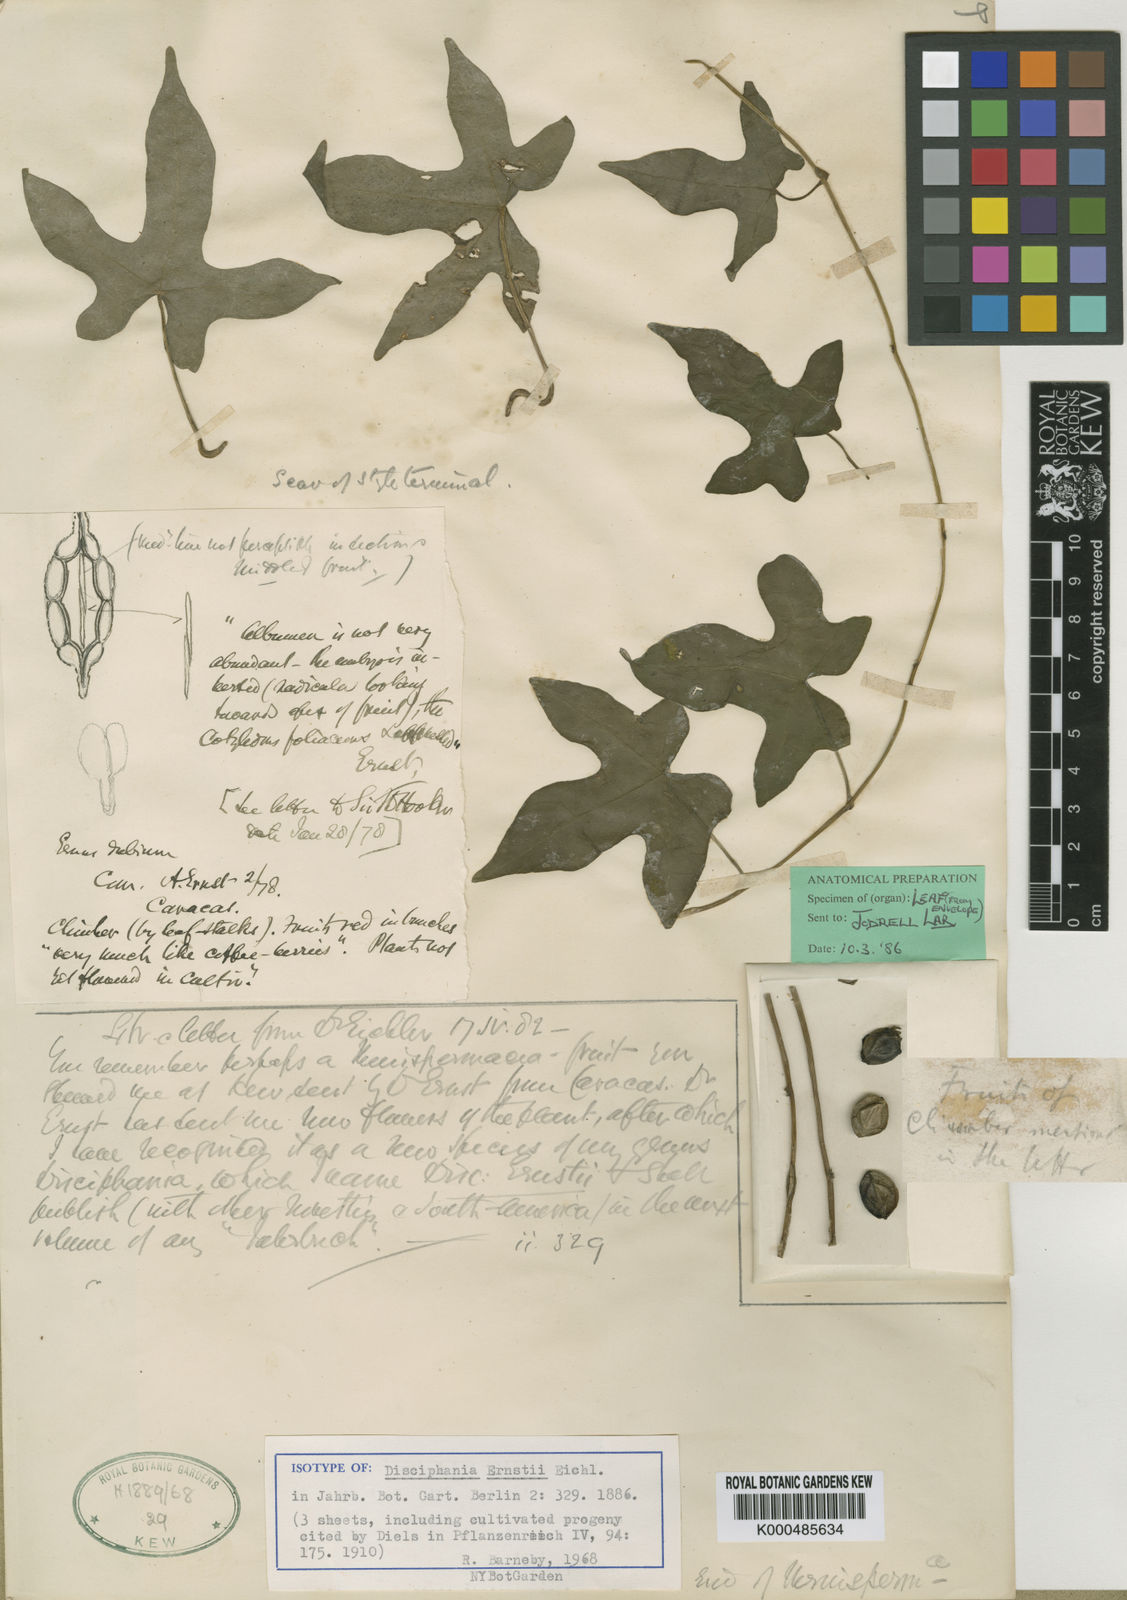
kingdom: Plantae
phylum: Tracheophyta
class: Magnoliopsida
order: Ranunculales
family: Menispermaceae
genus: Disciphania
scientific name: Disciphania ernstii
